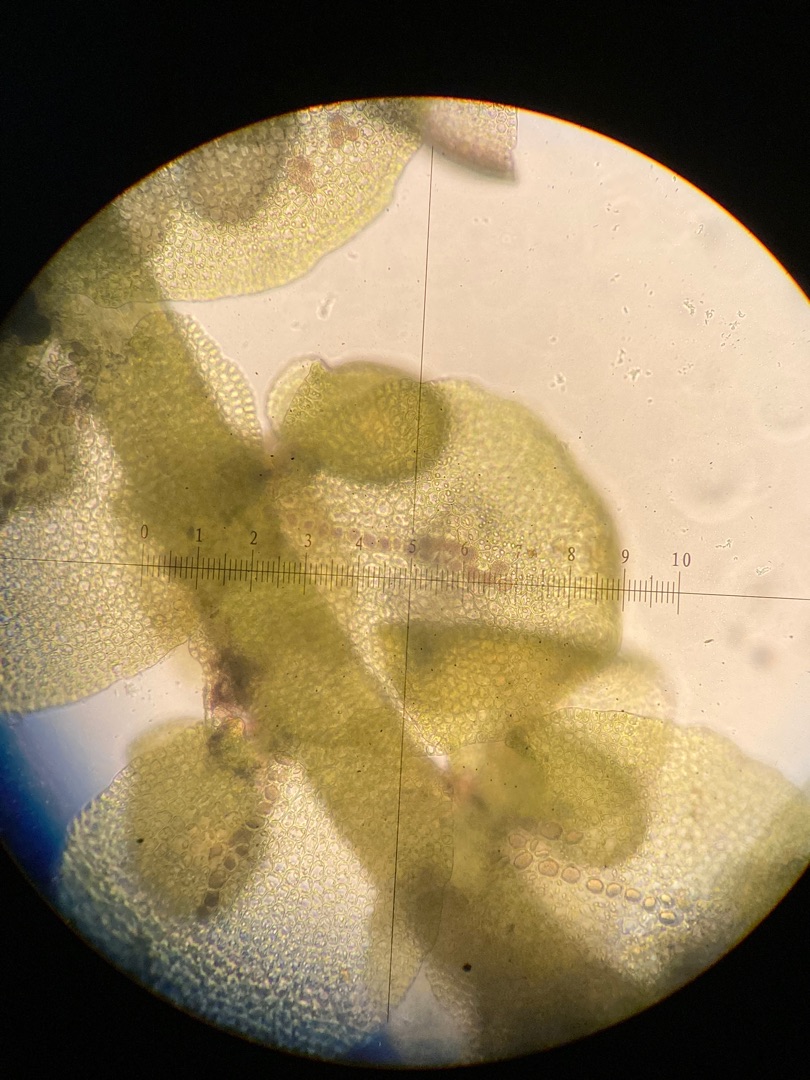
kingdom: Plantae
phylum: Marchantiophyta
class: Jungermanniopsida
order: Porellales
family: Frullaniaceae
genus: Frullania
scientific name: Frullania tamarisci
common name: Glinsende bronzemos
